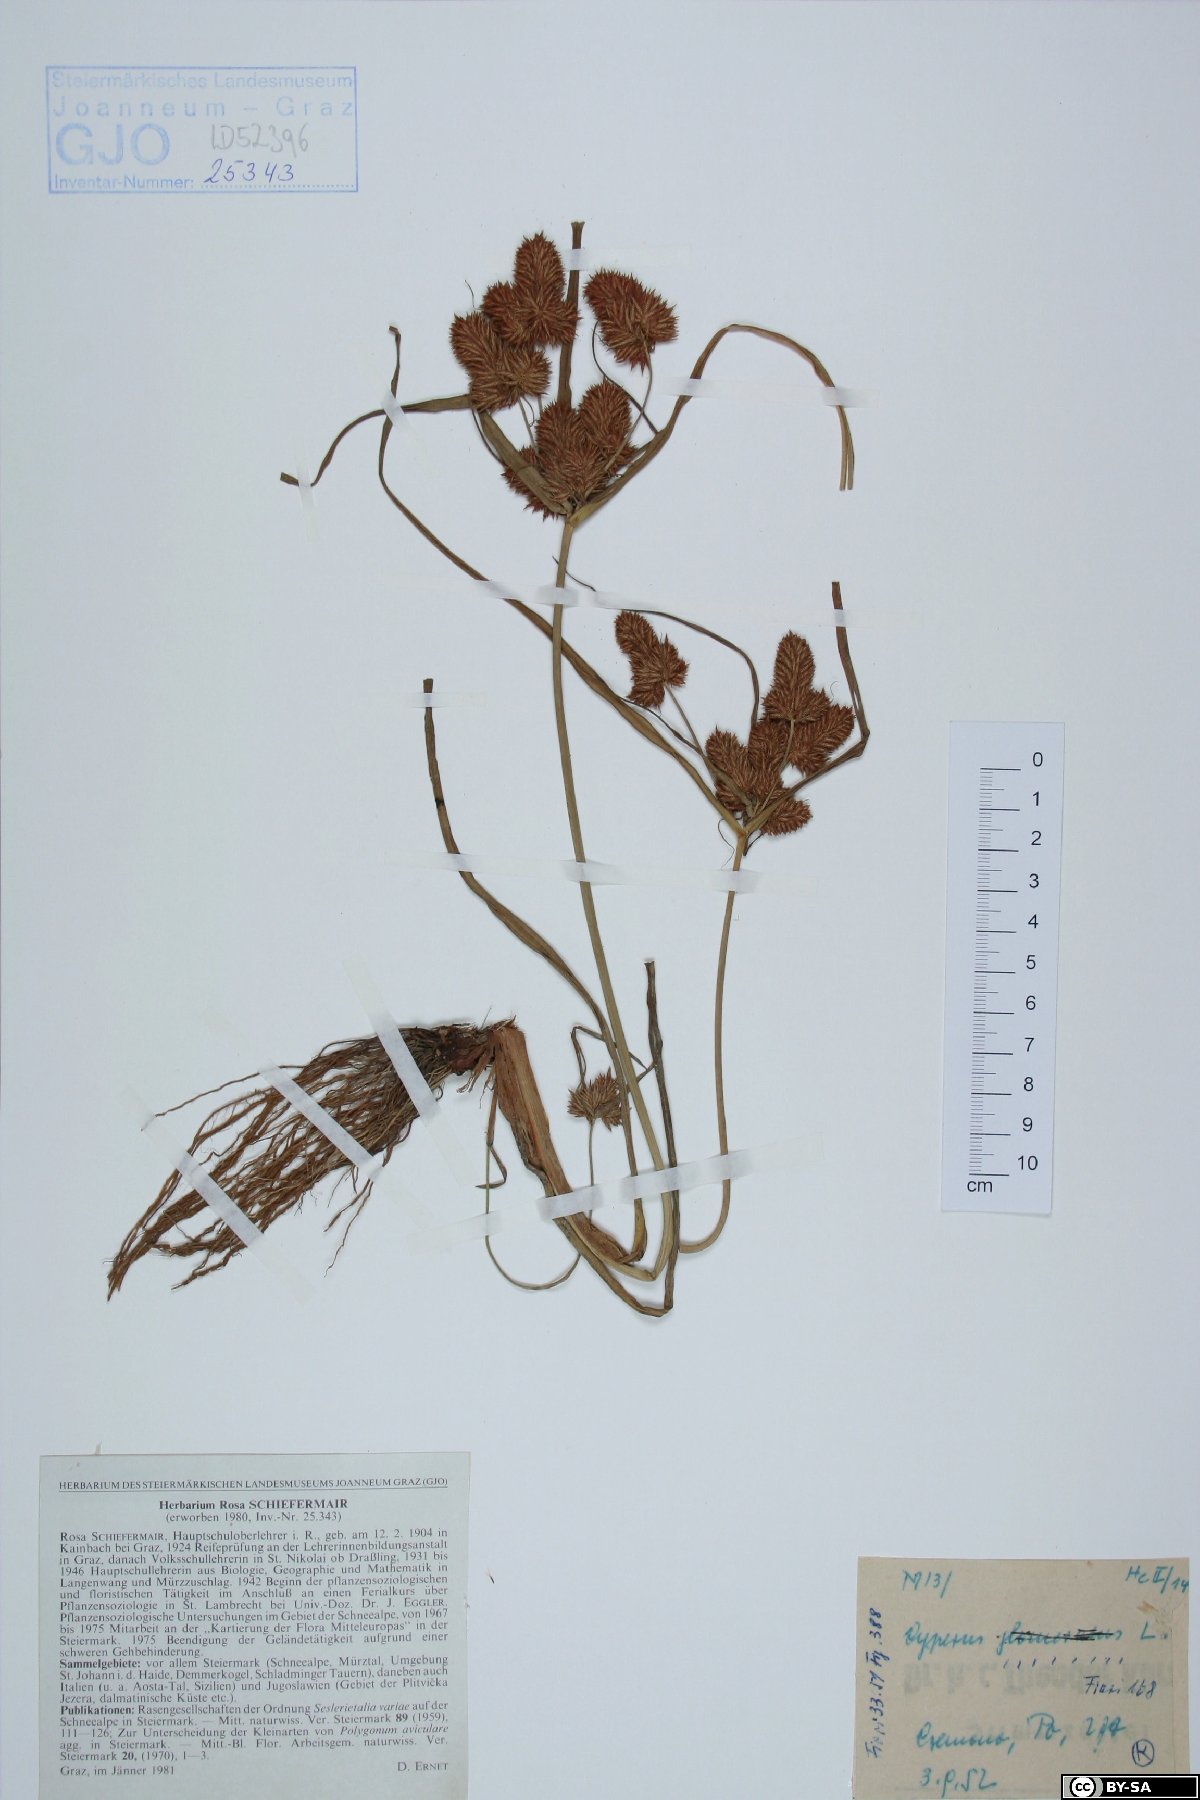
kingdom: Plantae
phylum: Tracheophyta
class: Liliopsida
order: Poales
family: Cyperaceae
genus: Cyperus
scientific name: Cyperus glomeratus
